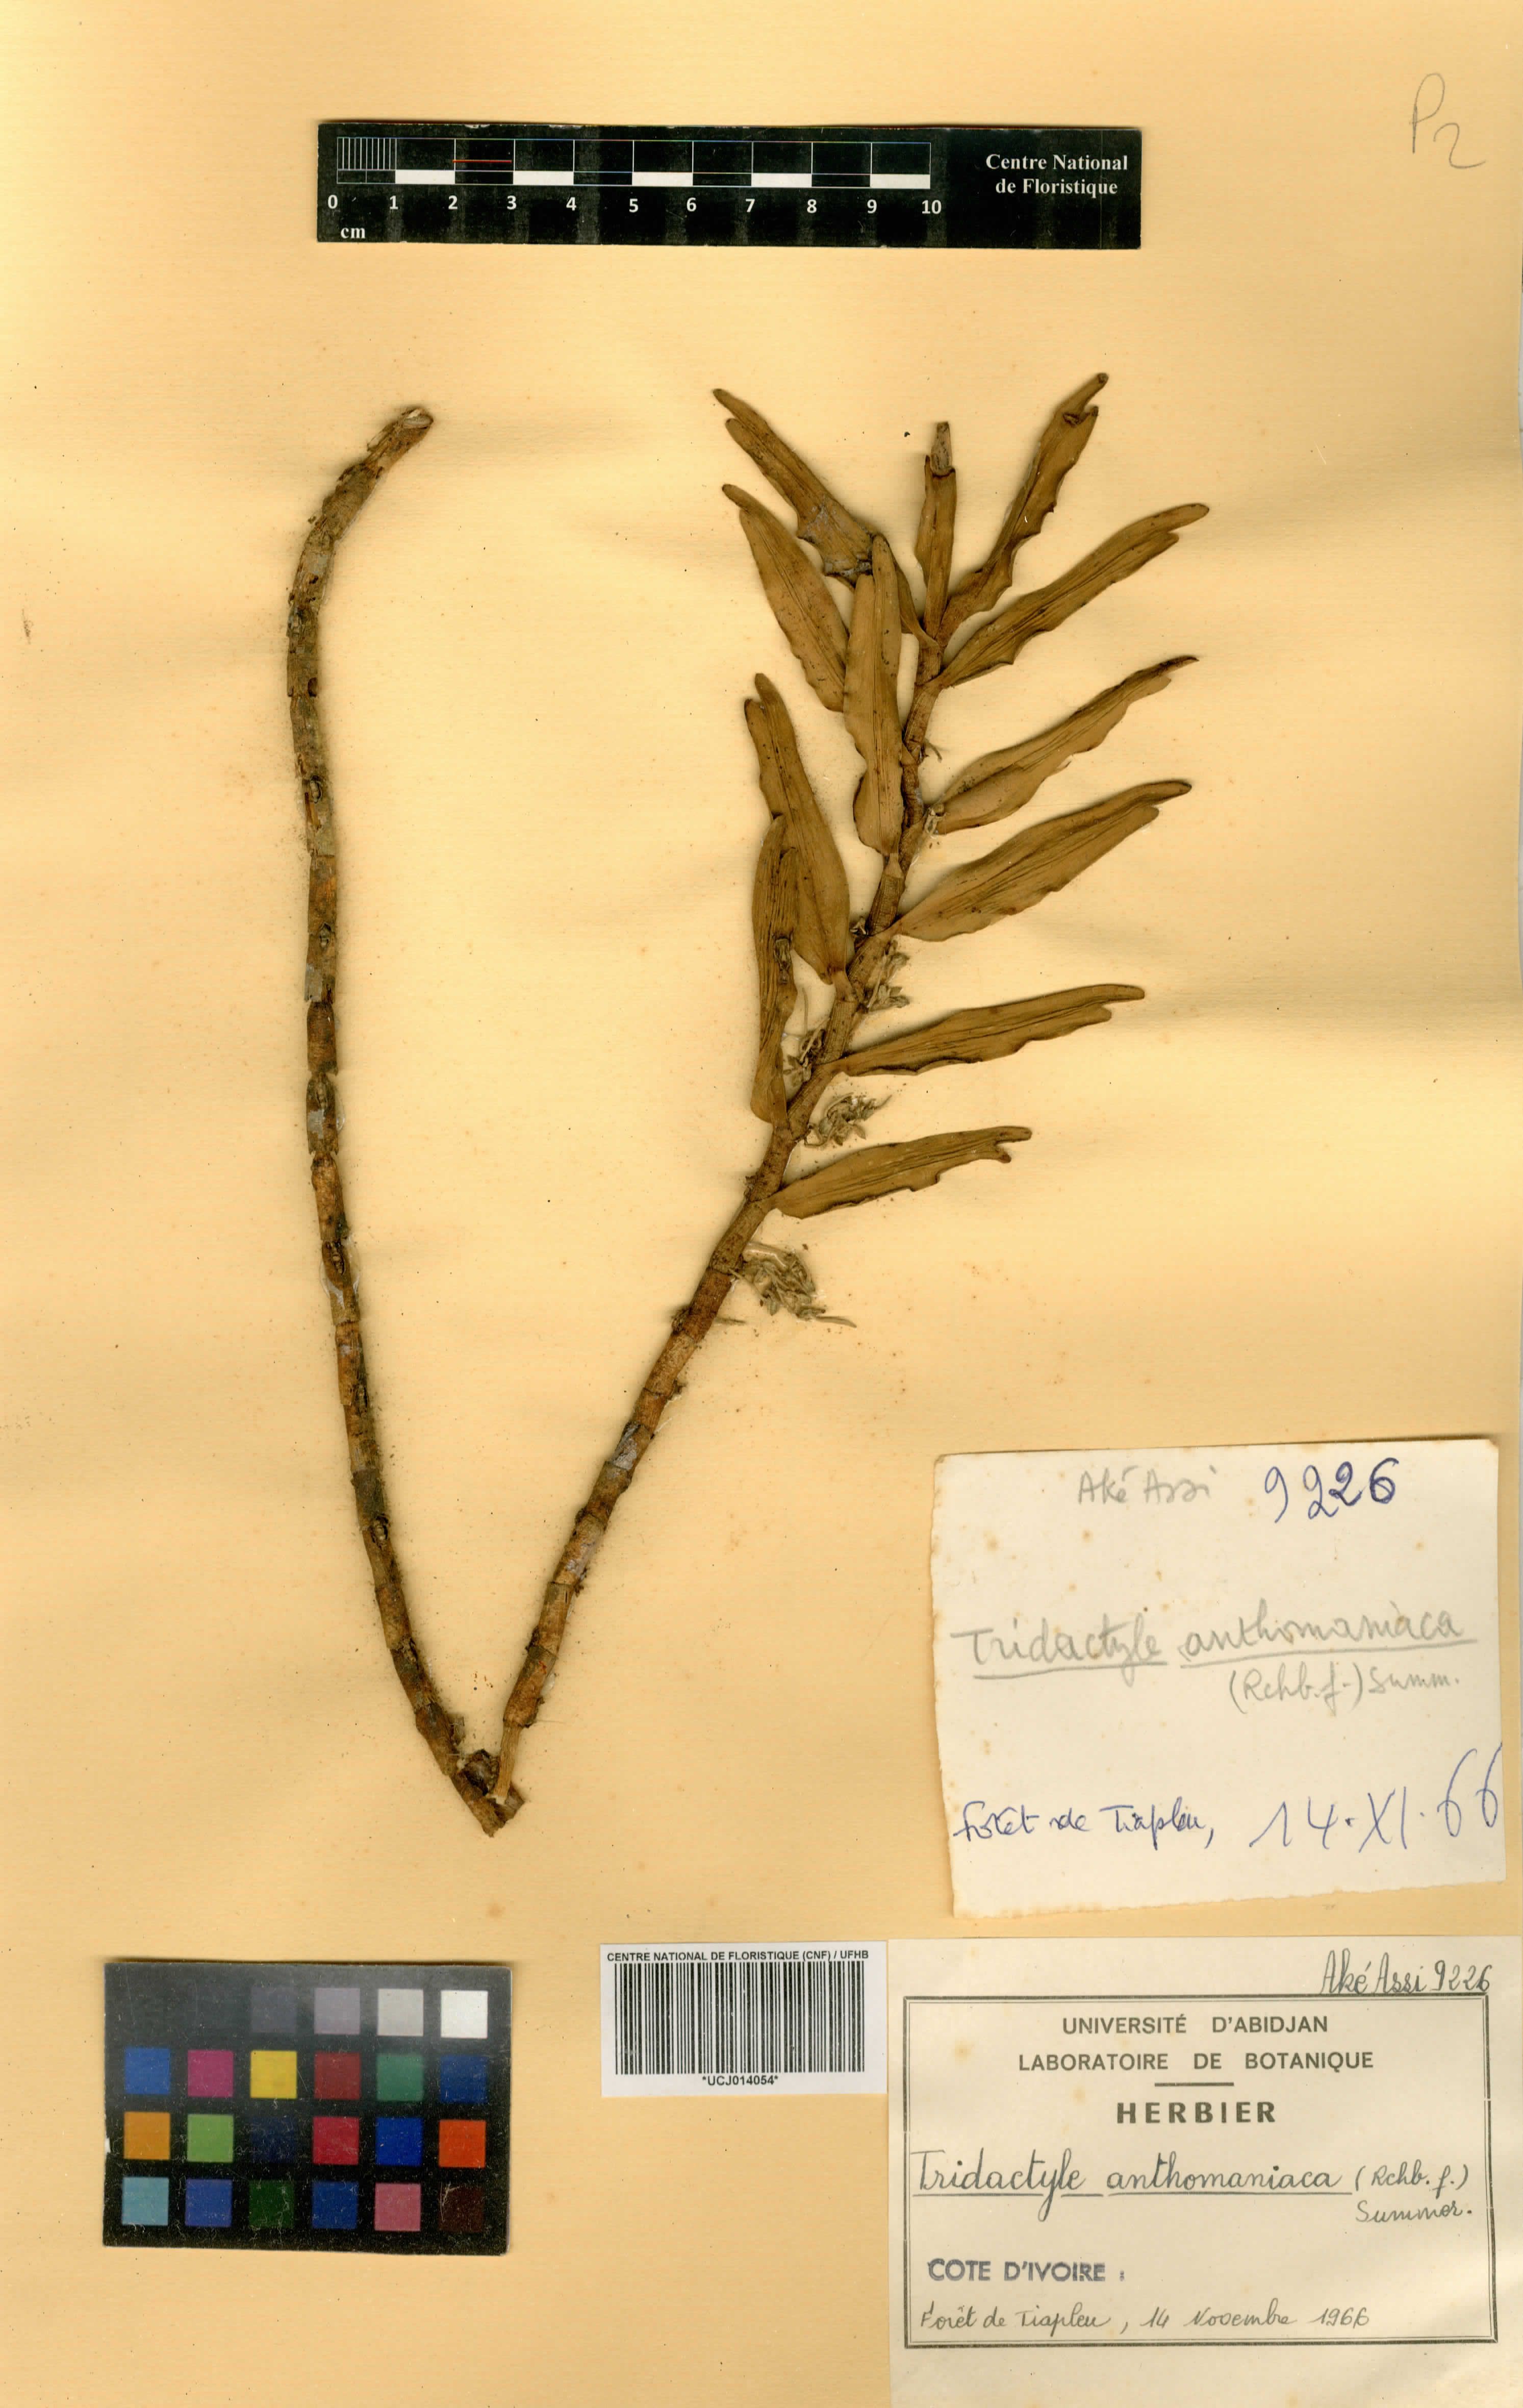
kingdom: Plantae
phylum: Tracheophyta
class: Liliopsida
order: Asparagales
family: Orchidaceae
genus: Tridactyle
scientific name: Tridactyle anthomaniaca
